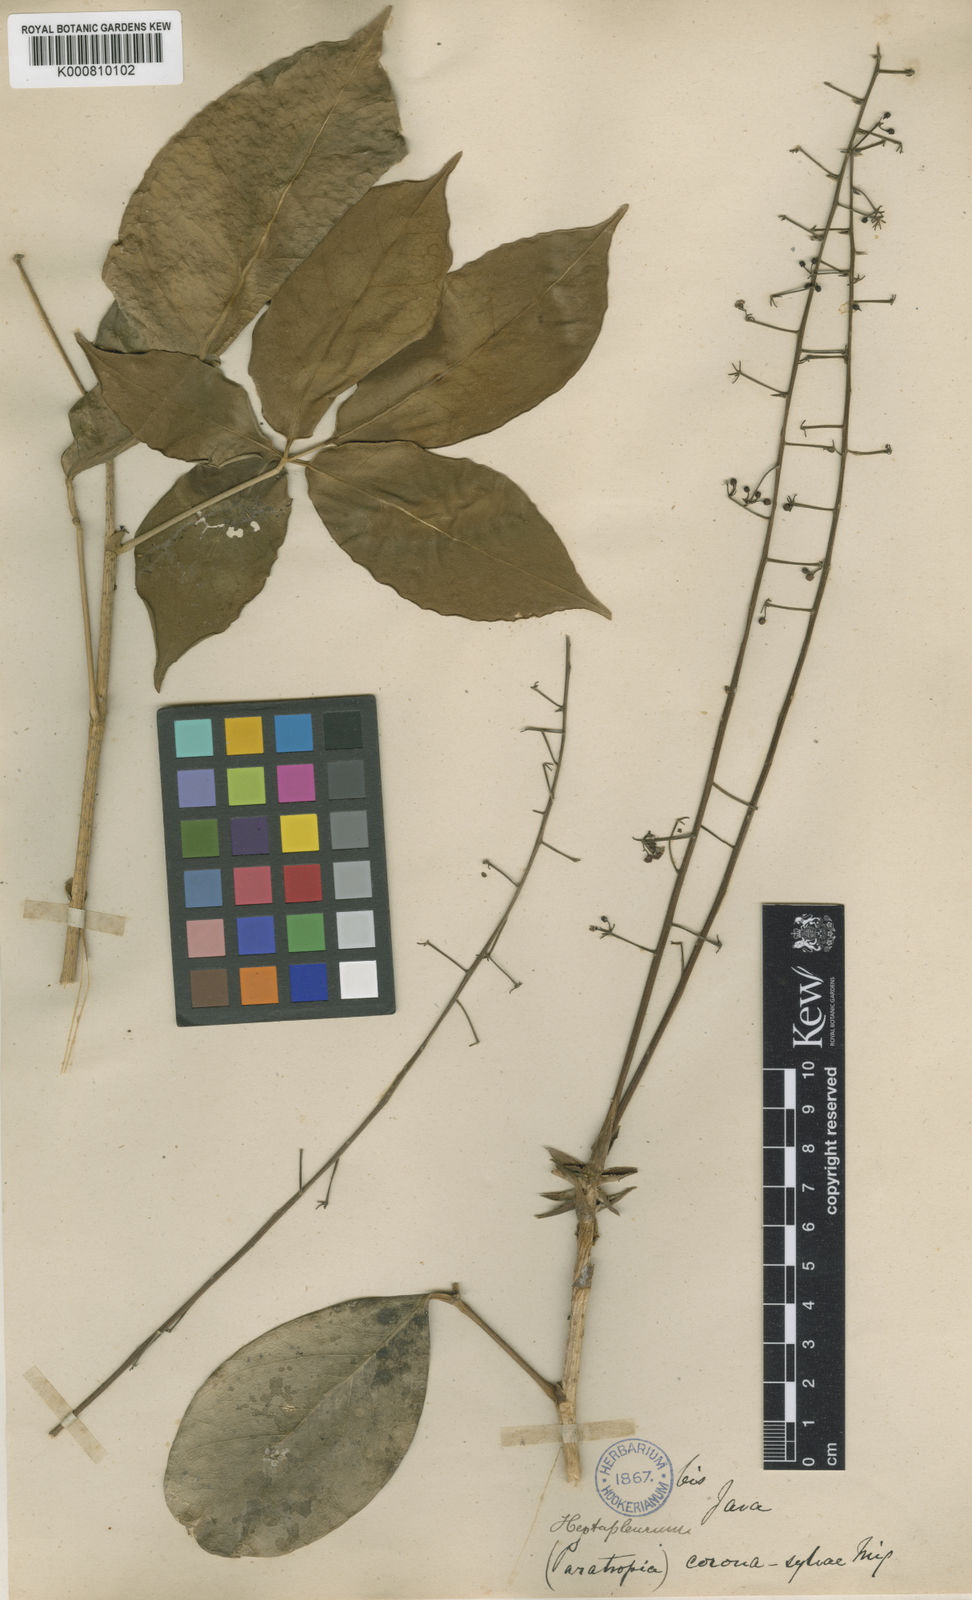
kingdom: Plantae
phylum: Tracheophyta
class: Magnoliopsida
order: Apiales
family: Araliaceae
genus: Heptapleurum
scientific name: Heptapleurum subavene
